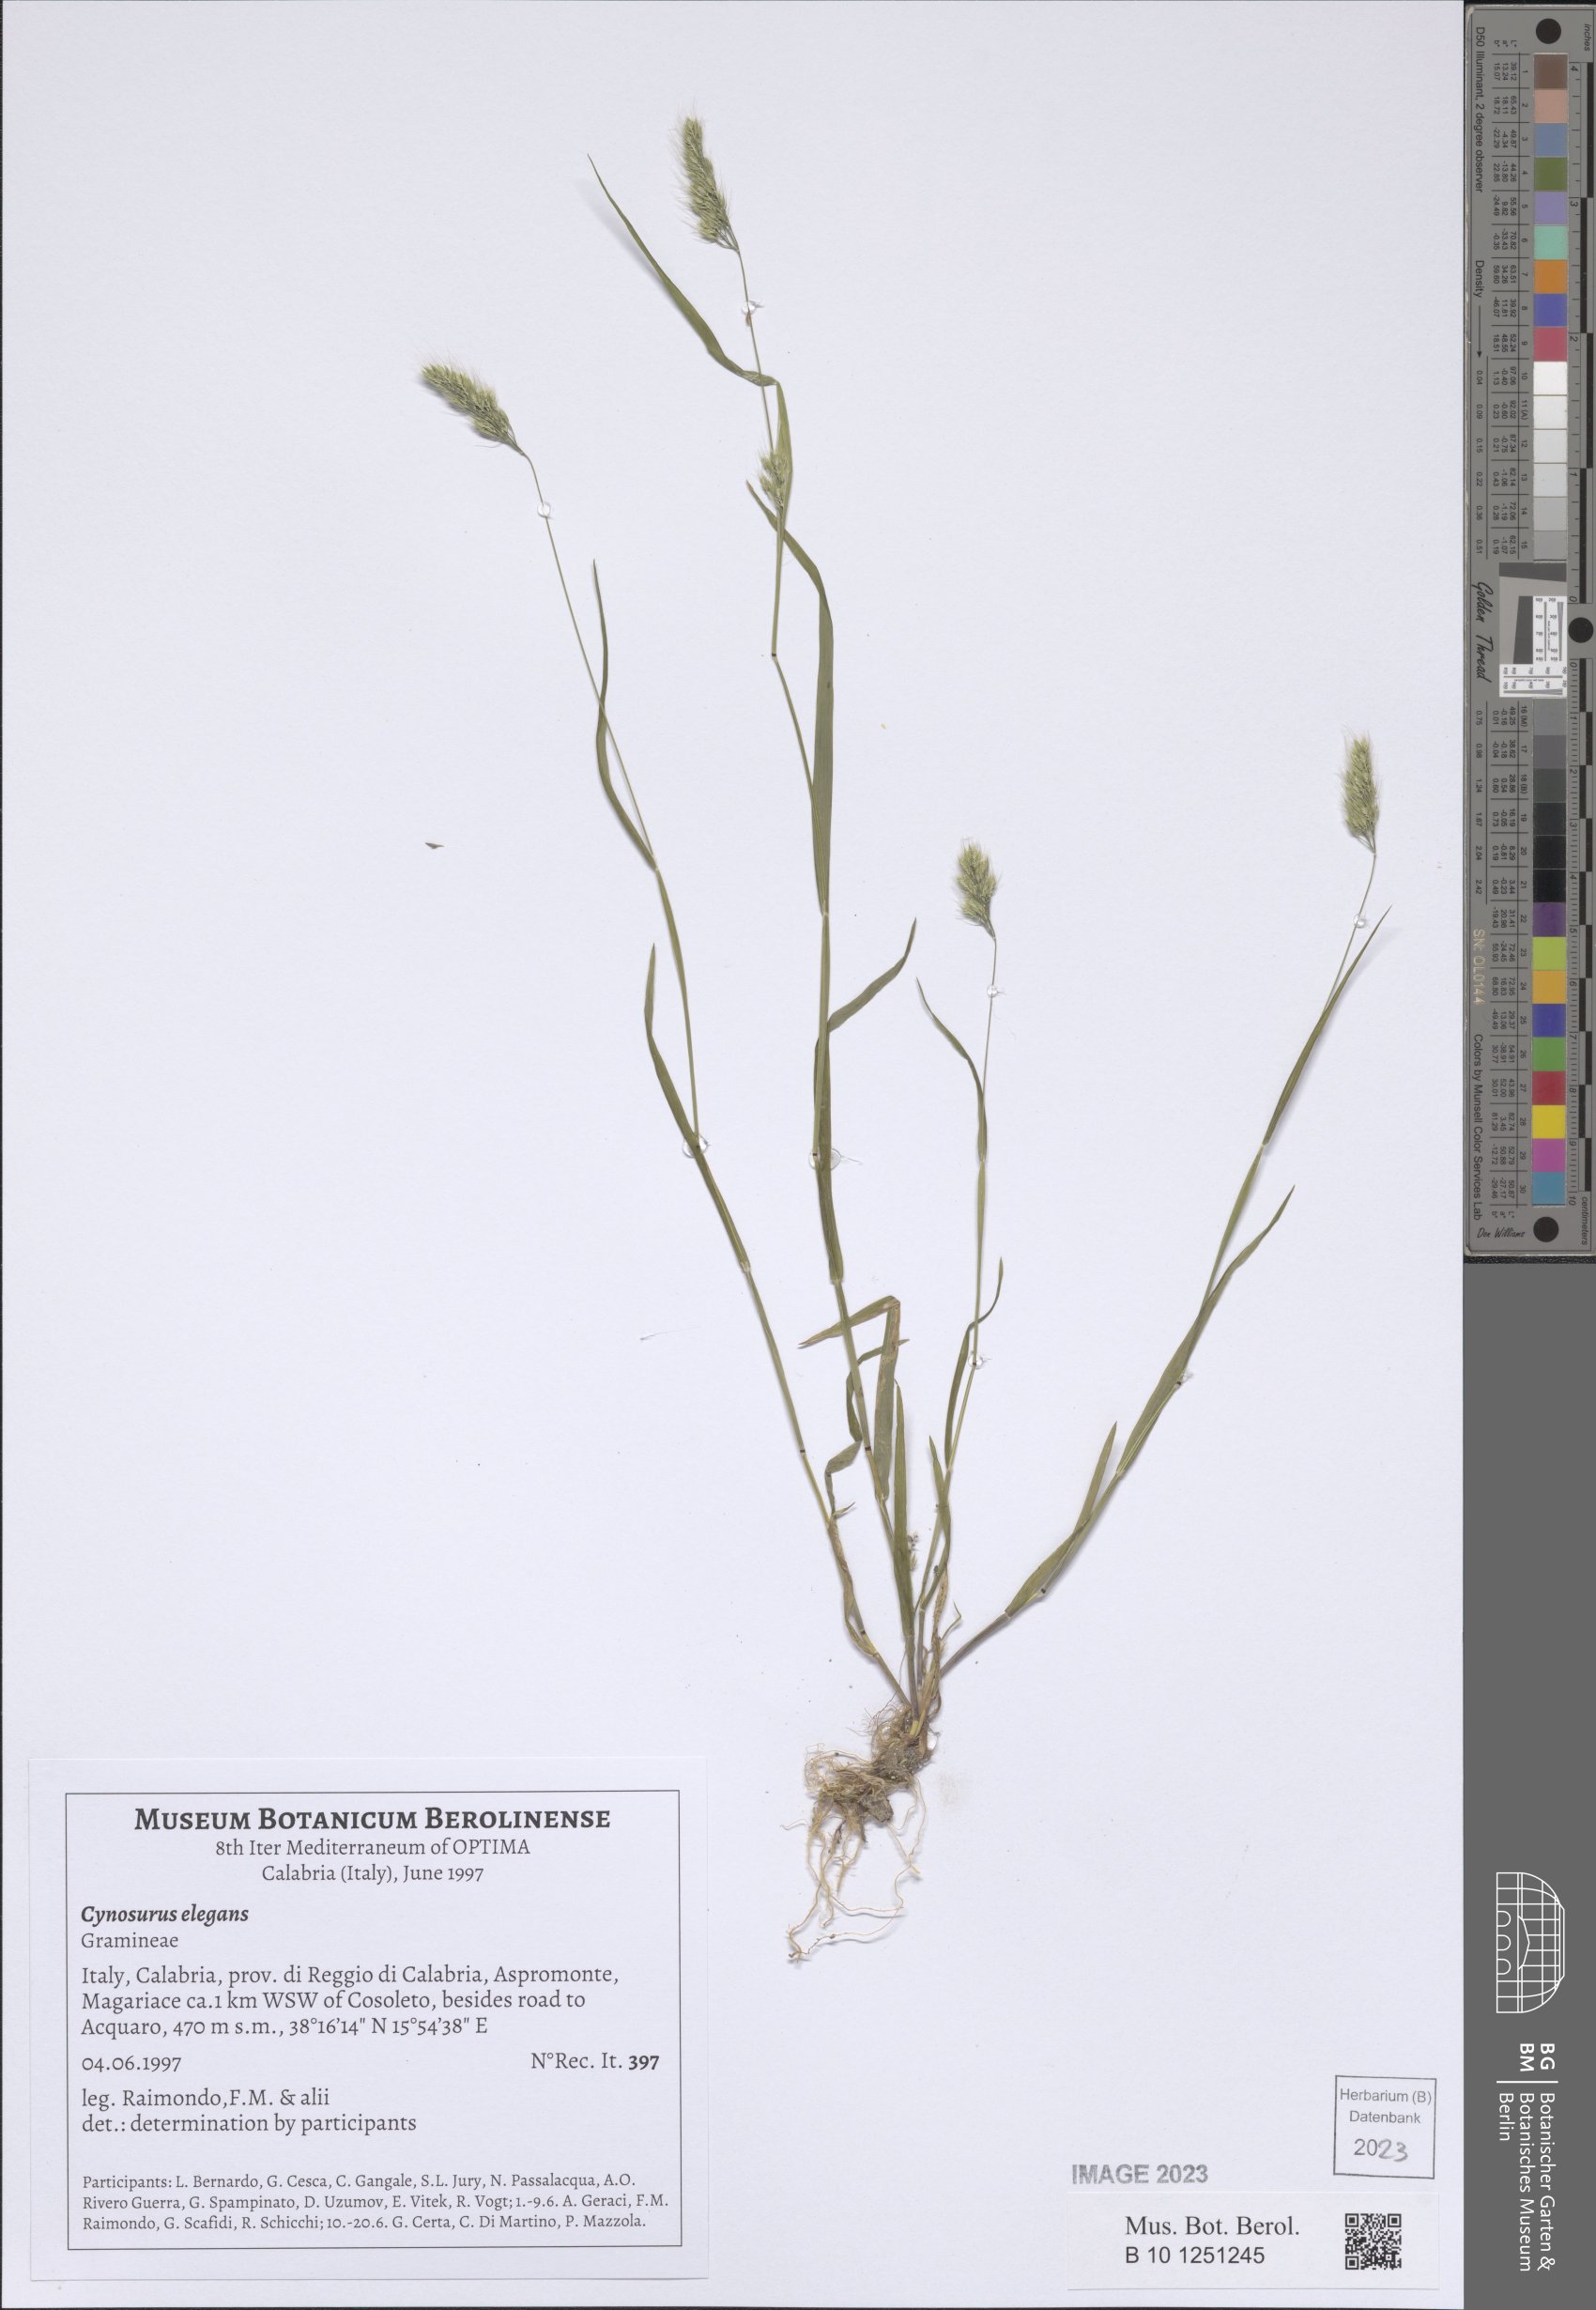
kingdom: Plantae
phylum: Tracheophyta
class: Liliopsida
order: Poales
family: Poaceae
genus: Cynosurus
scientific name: Cynosurus elegans
